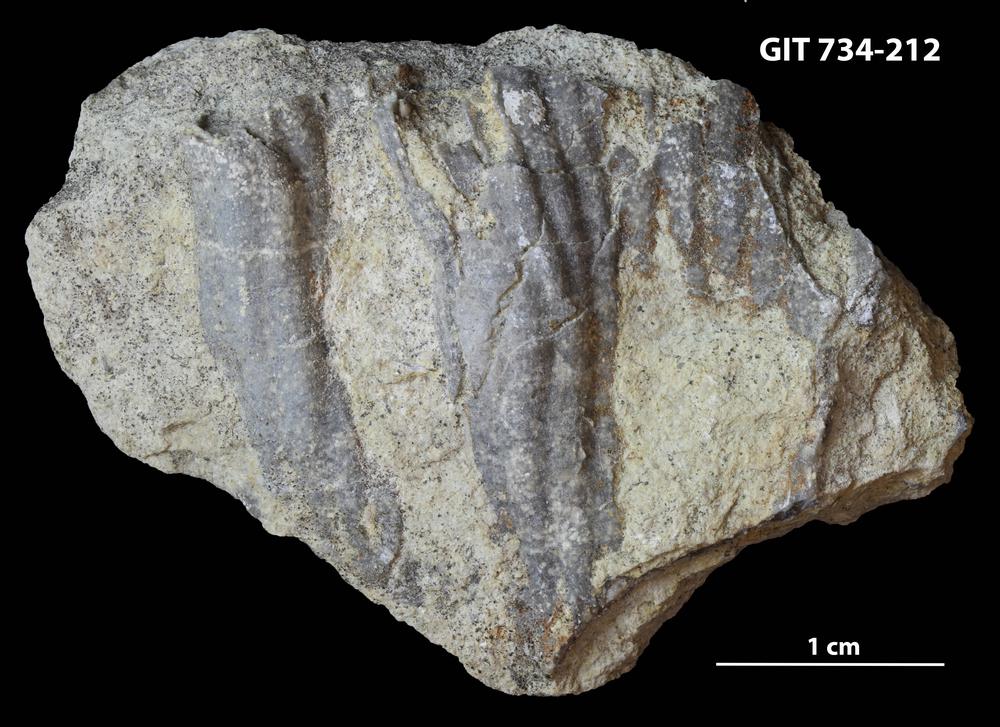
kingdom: Animalia
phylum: Cnidaria
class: Anthozoa
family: Cateniporidae
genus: Catenipora
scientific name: Catenipora
